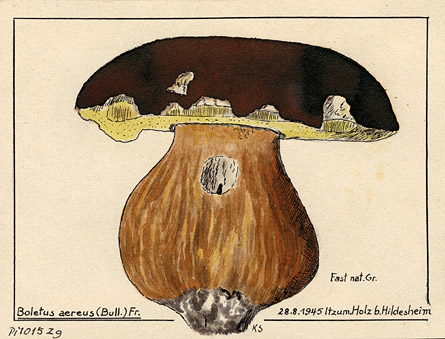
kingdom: Fungi
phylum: Basidiomycota
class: Agaricomycetes
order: Boletales
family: Boletaceae
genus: Boletus
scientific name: Boletus aereus
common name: Bronze bolete
